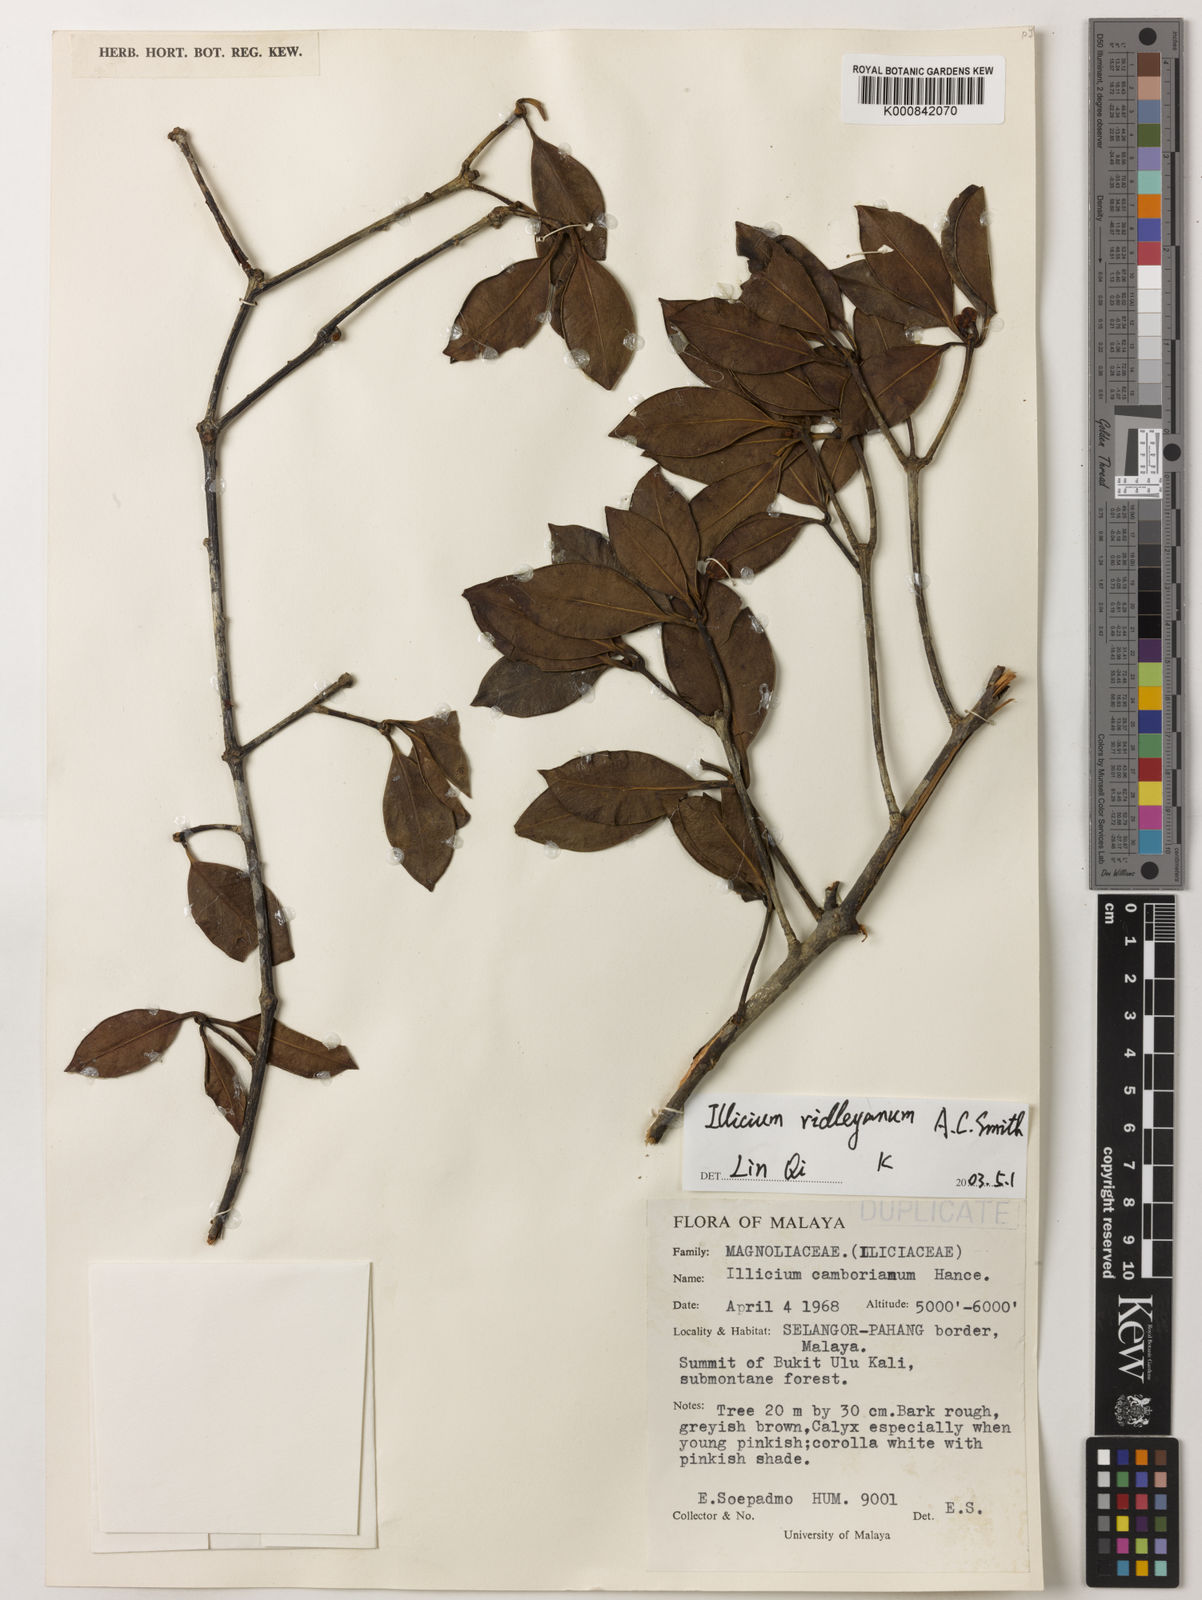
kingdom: Plantae
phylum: Tracheophyta
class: Magnoliopsida
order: Austrobaileyales
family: Schisandraceae
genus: Illicium
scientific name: Illicium ridleyanum
